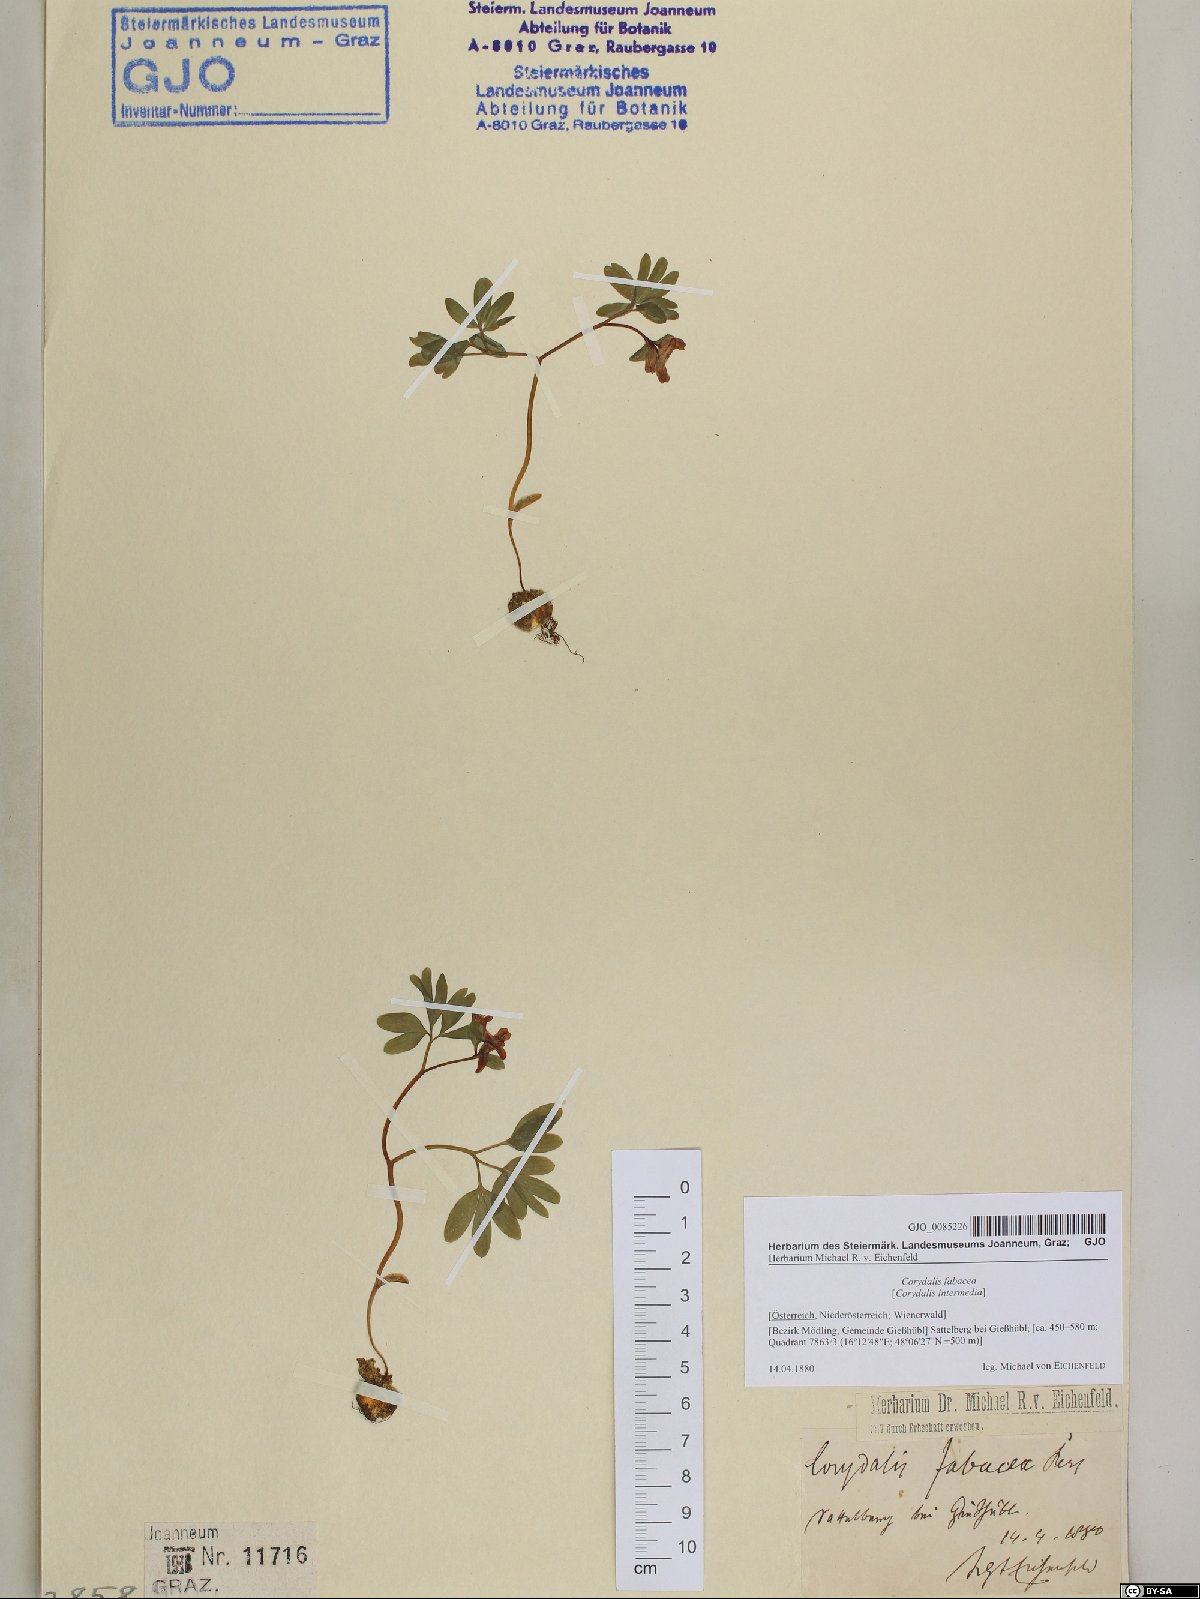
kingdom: Plantae
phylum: Tracheophyta
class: Magnoliopsida
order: Ranunculales
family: Papaveraceae
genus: Corydalis
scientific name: Corydalis intermedia
